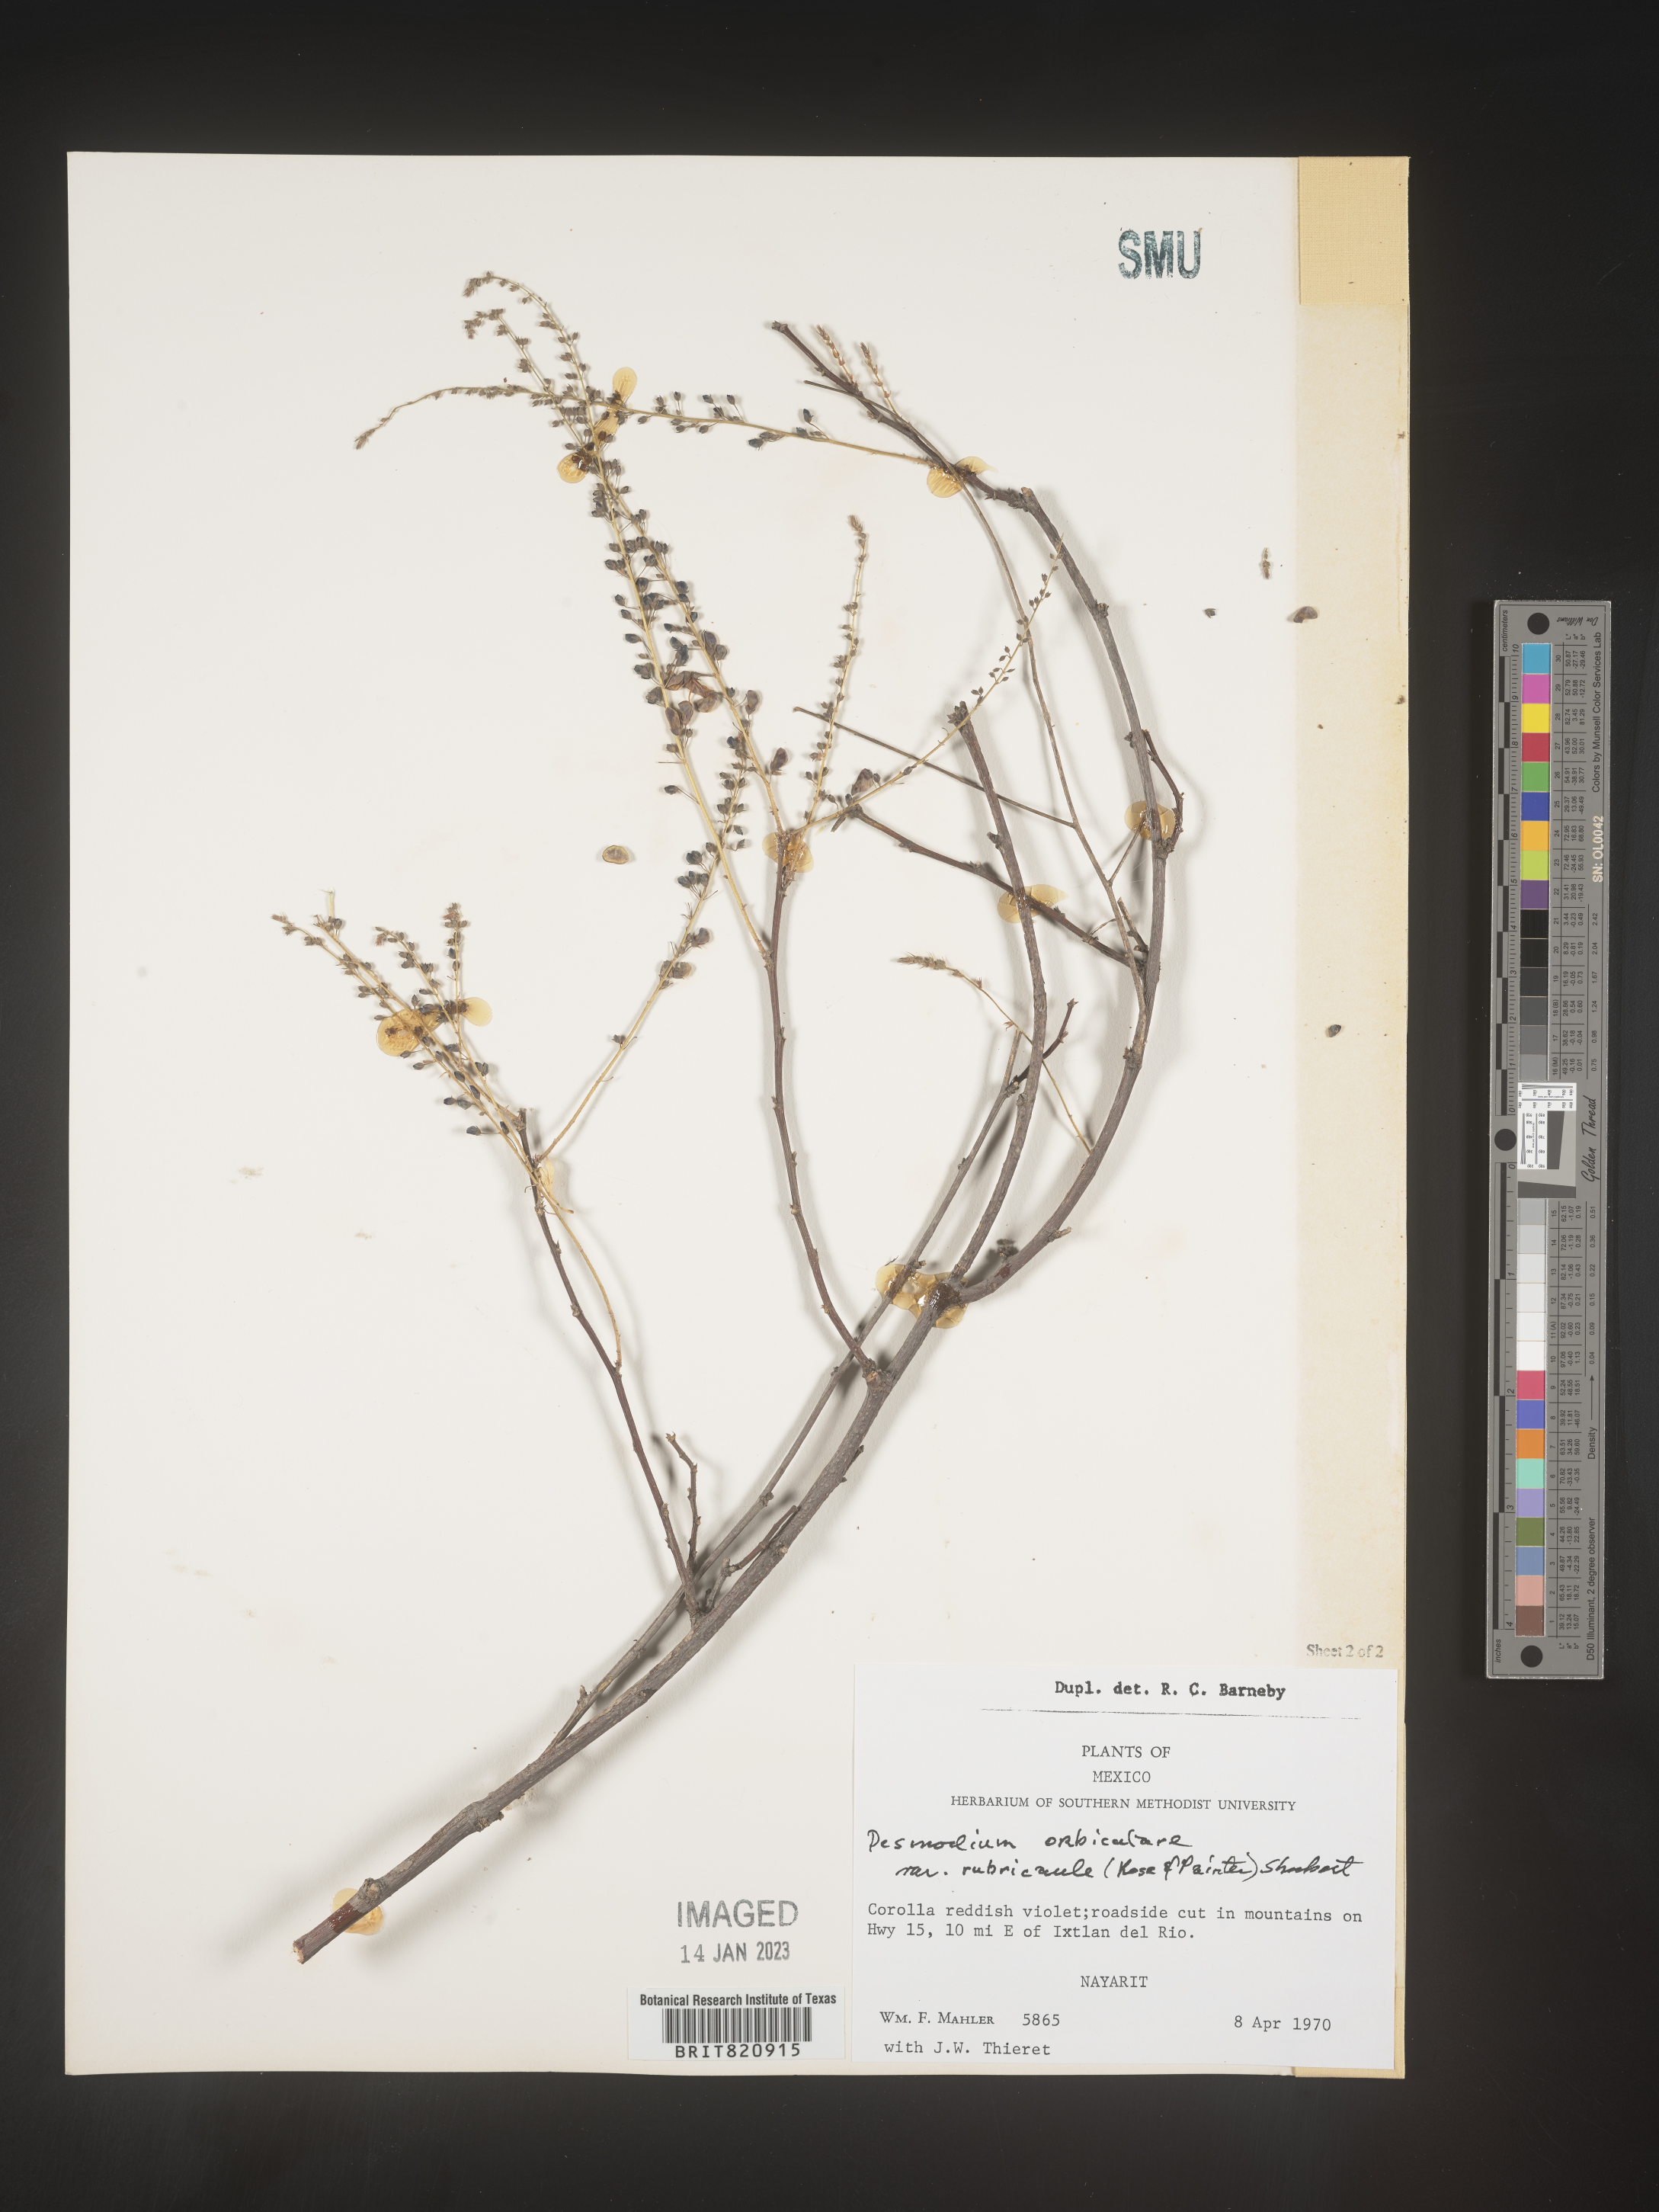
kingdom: Plantae
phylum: Tracheophyta
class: Magnoliopsida
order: Fabales
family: Fabaceae
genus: Desmodium
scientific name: Desmodium
